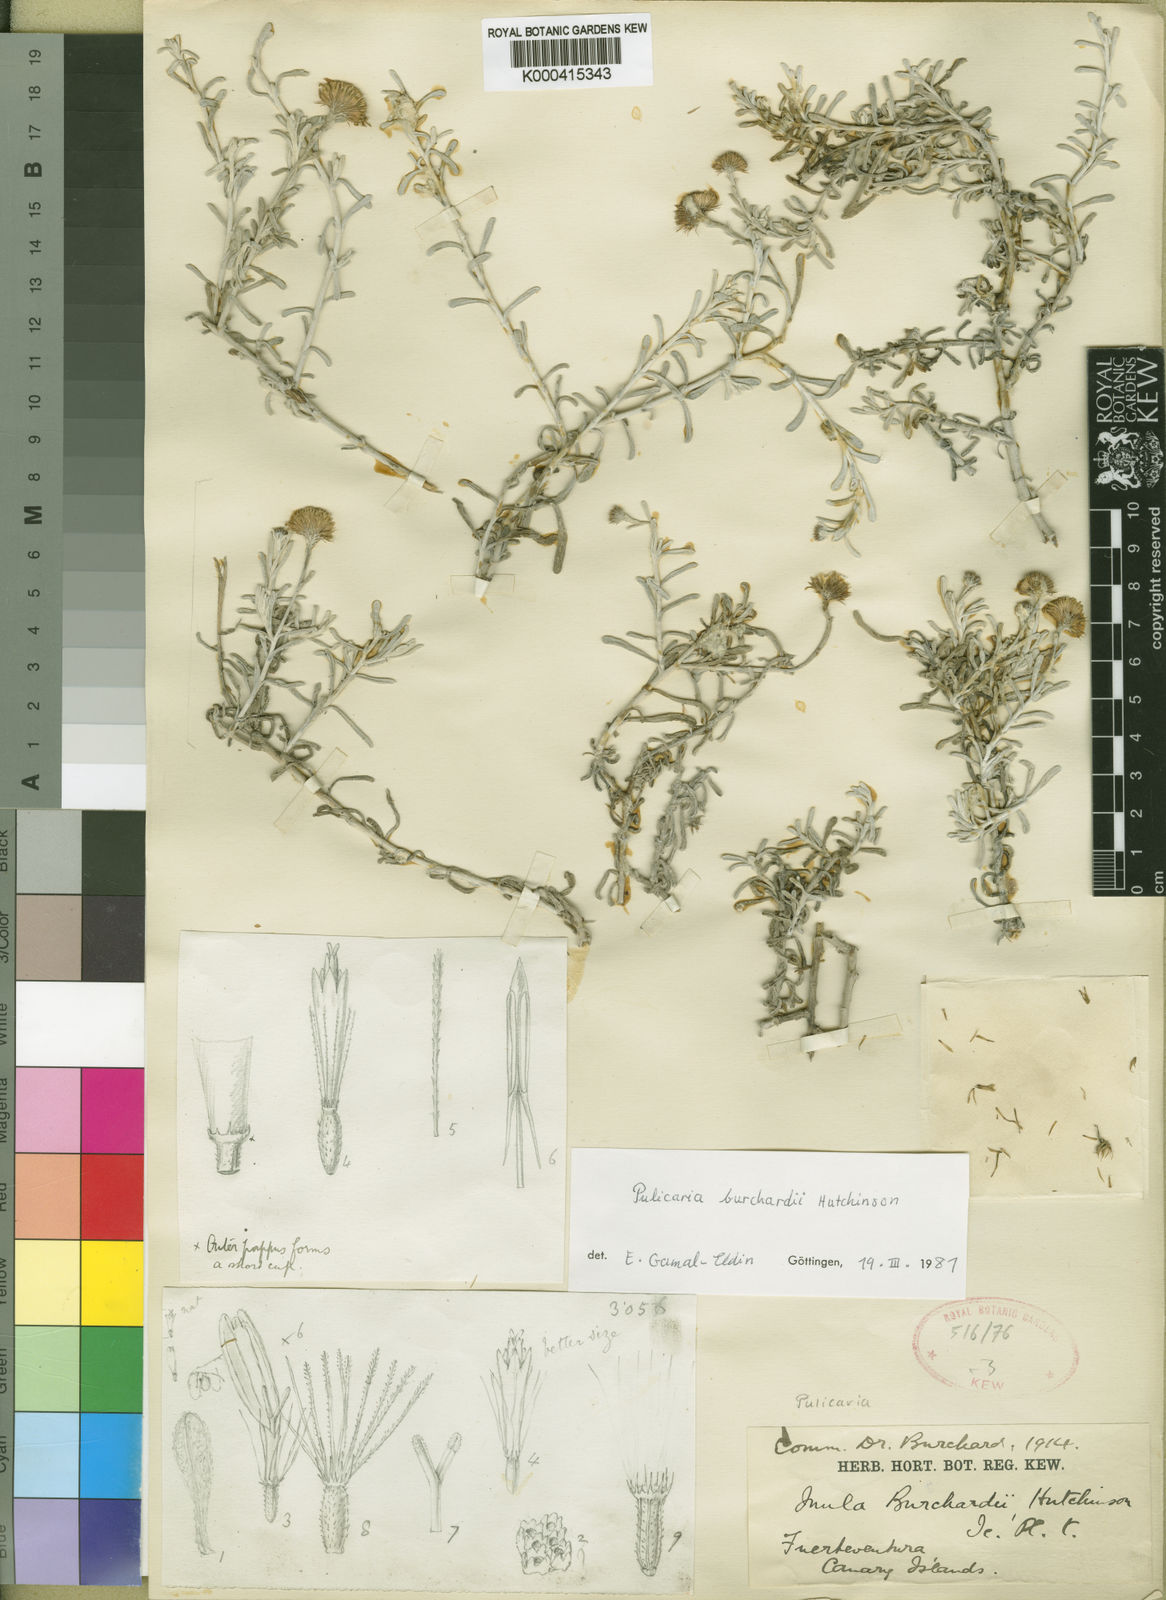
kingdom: Plantae
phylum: Tracheophyta
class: Magnoliopsida
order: Asterales
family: Asteraceae
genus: Pulicaria
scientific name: Pulicaria burchardii
